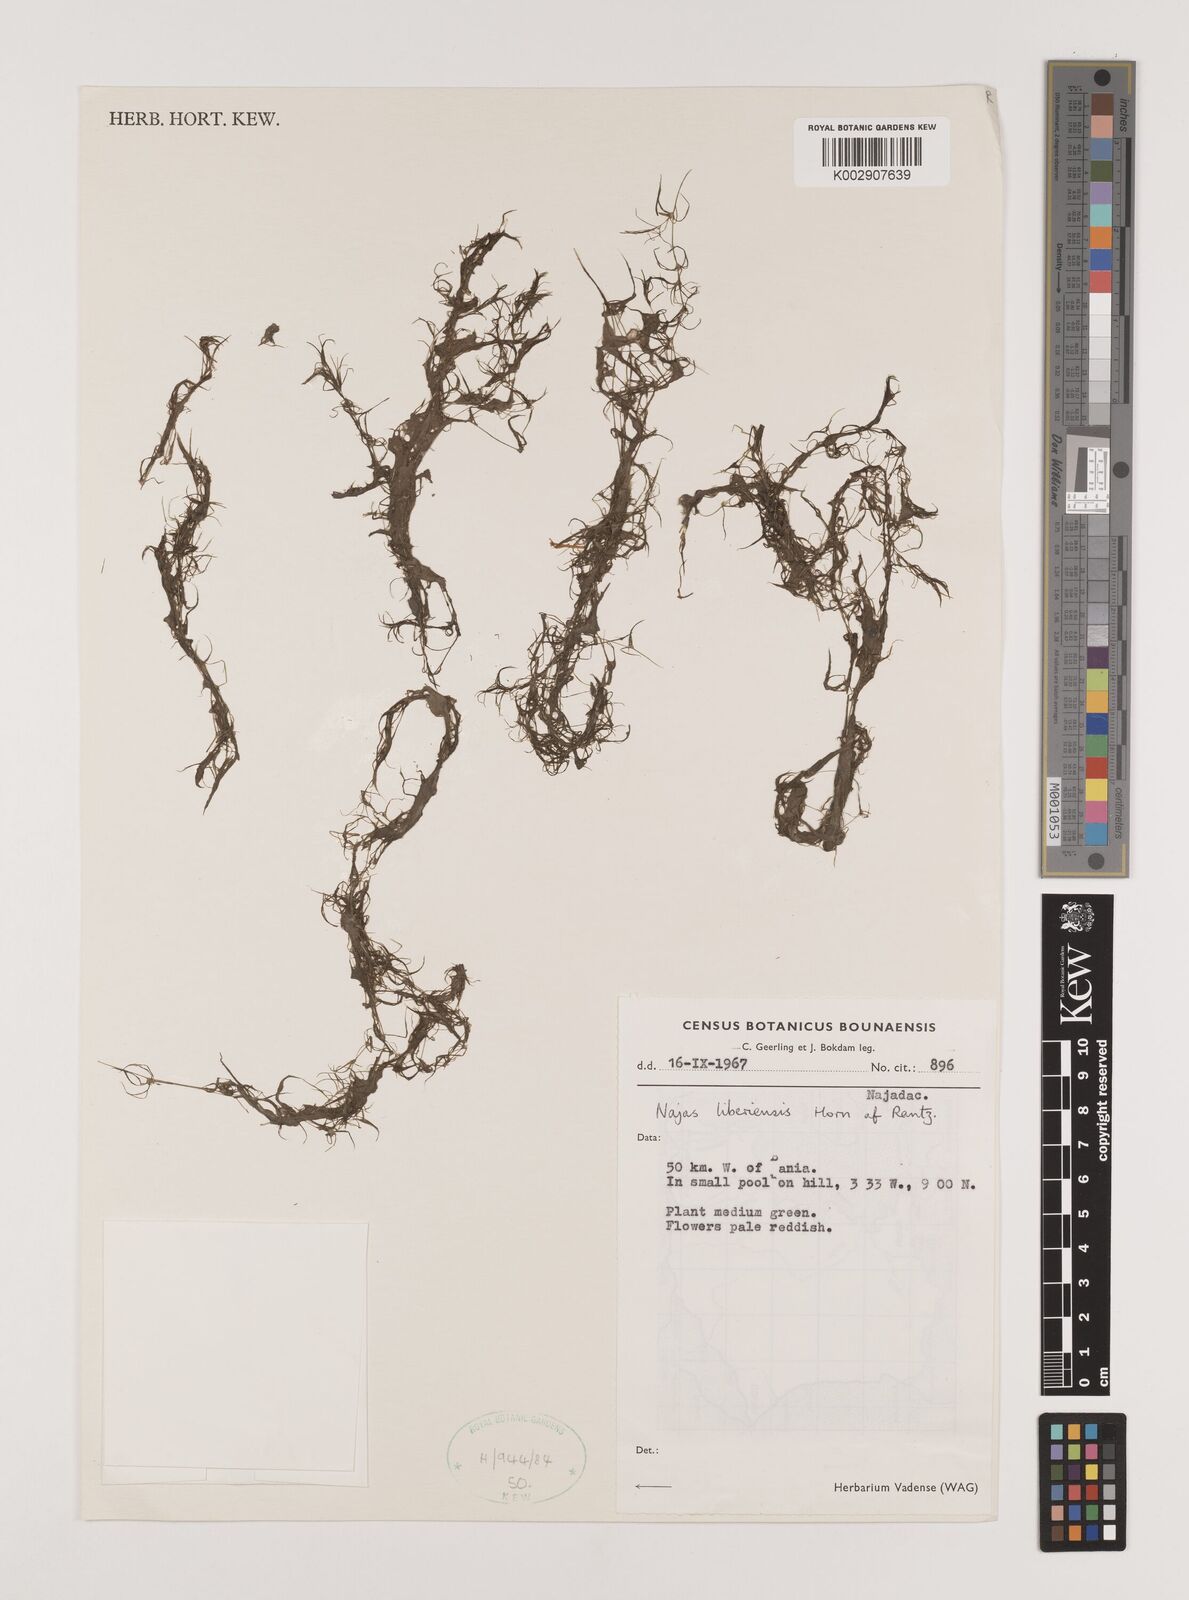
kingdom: Plantae
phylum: Tracheophyta
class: Liliopsida
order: Alismatales
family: Hydrocharitaceae
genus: Najas
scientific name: Najas baldwinii
